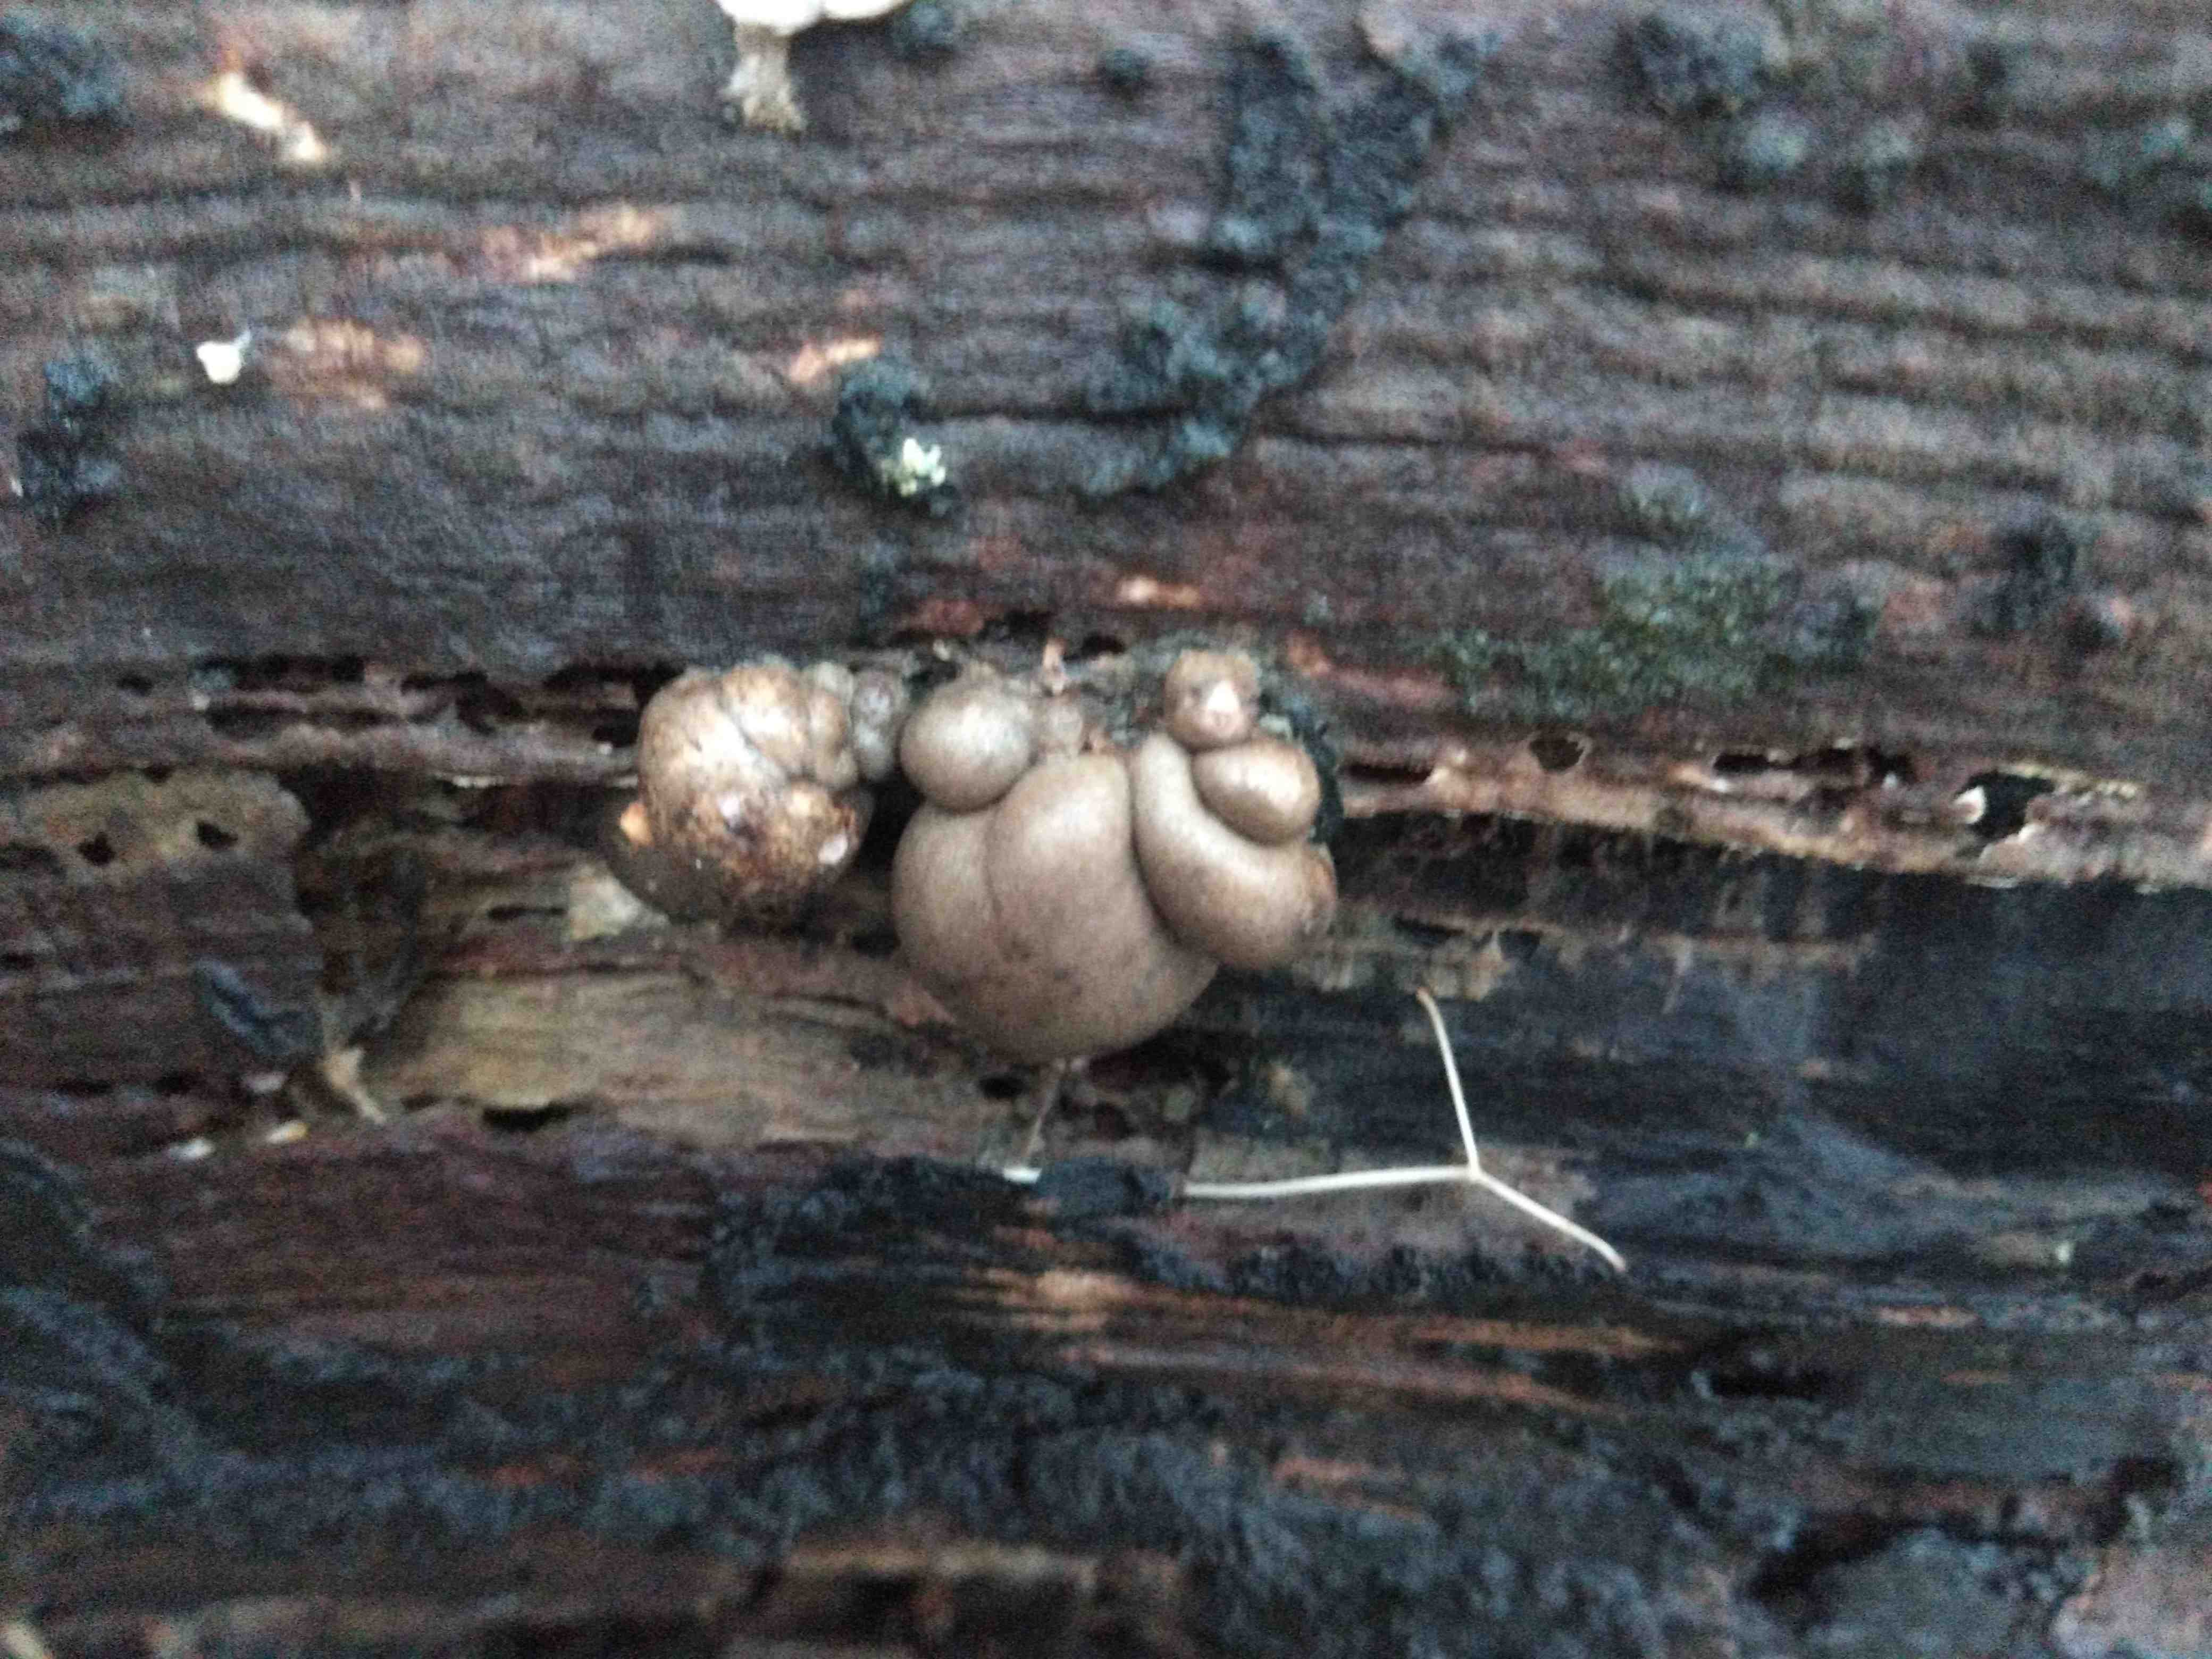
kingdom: Protozoa
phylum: Mycetozoa
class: Myxomycetes
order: Cribrariales
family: Tubiferaceae
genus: Lycogala
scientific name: Lycogala epidendrum
